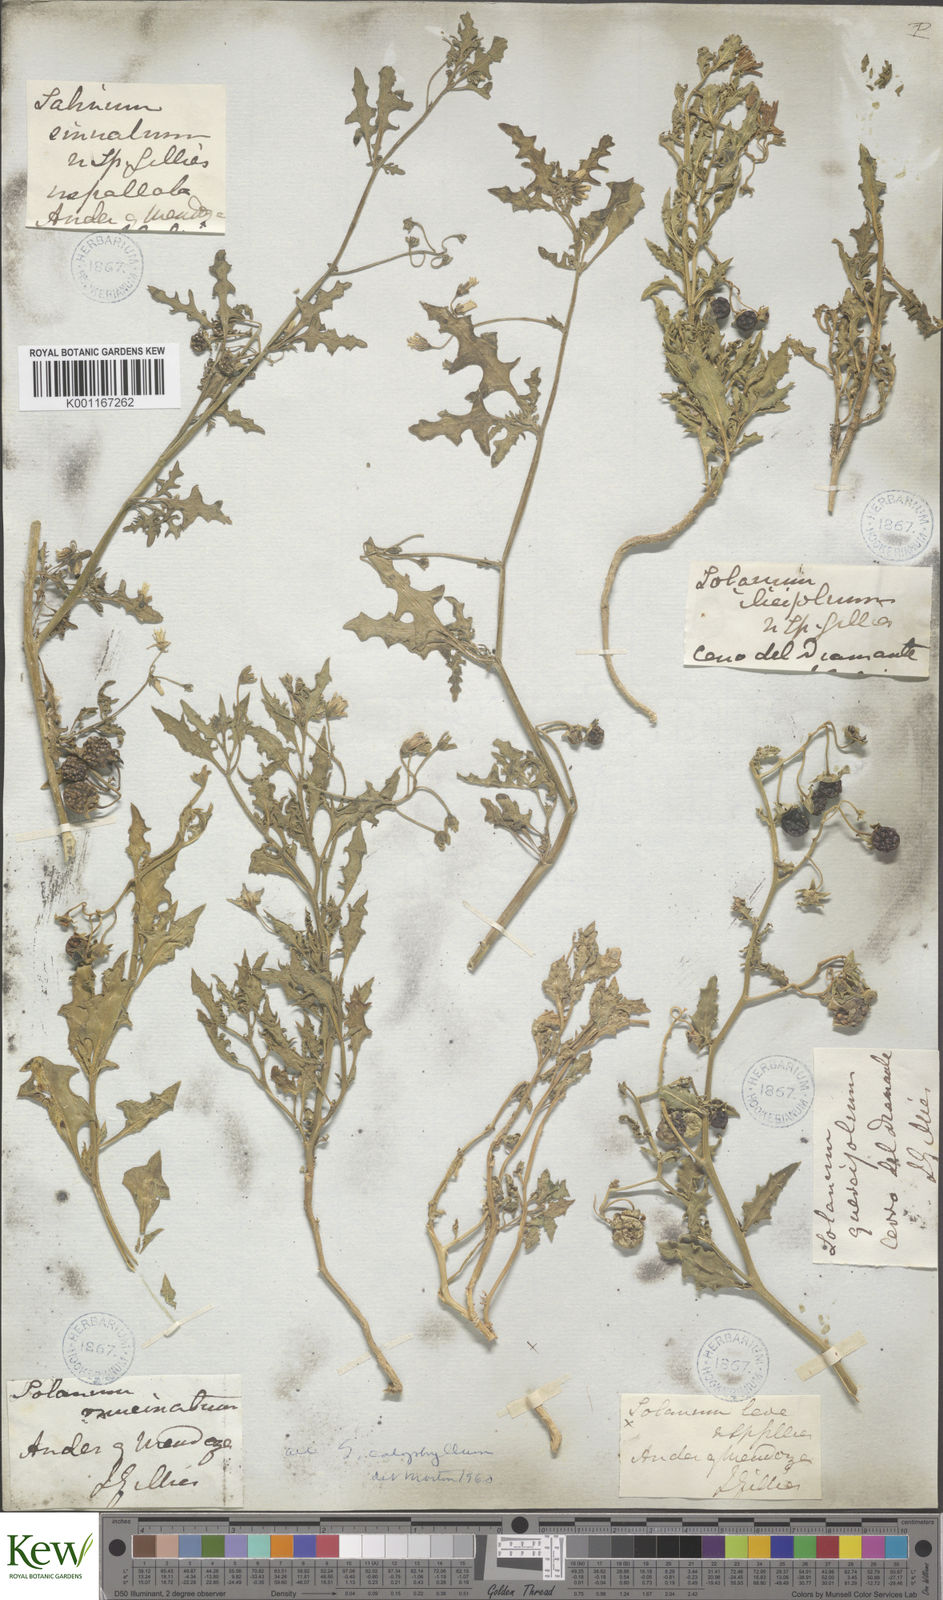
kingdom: Plantae
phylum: Tracheophyta
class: Magnoliopsida
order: Solanales
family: Solanaceae
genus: Solanum
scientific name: Solanum triflorum
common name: Small nightshade
